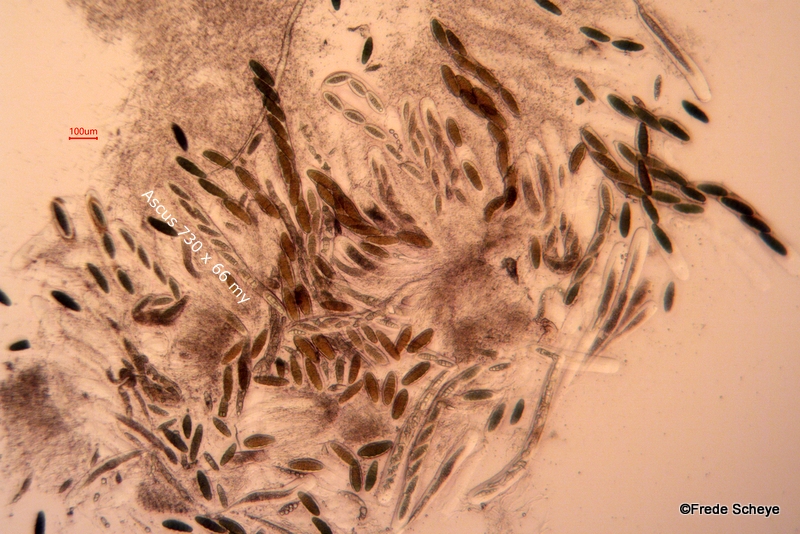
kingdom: Fungi
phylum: Ascomycota
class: Dothideomycetes
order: Pleosporales
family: Pleomassariaceae
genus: Pleomassaria
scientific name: Pleomassaria siparia
